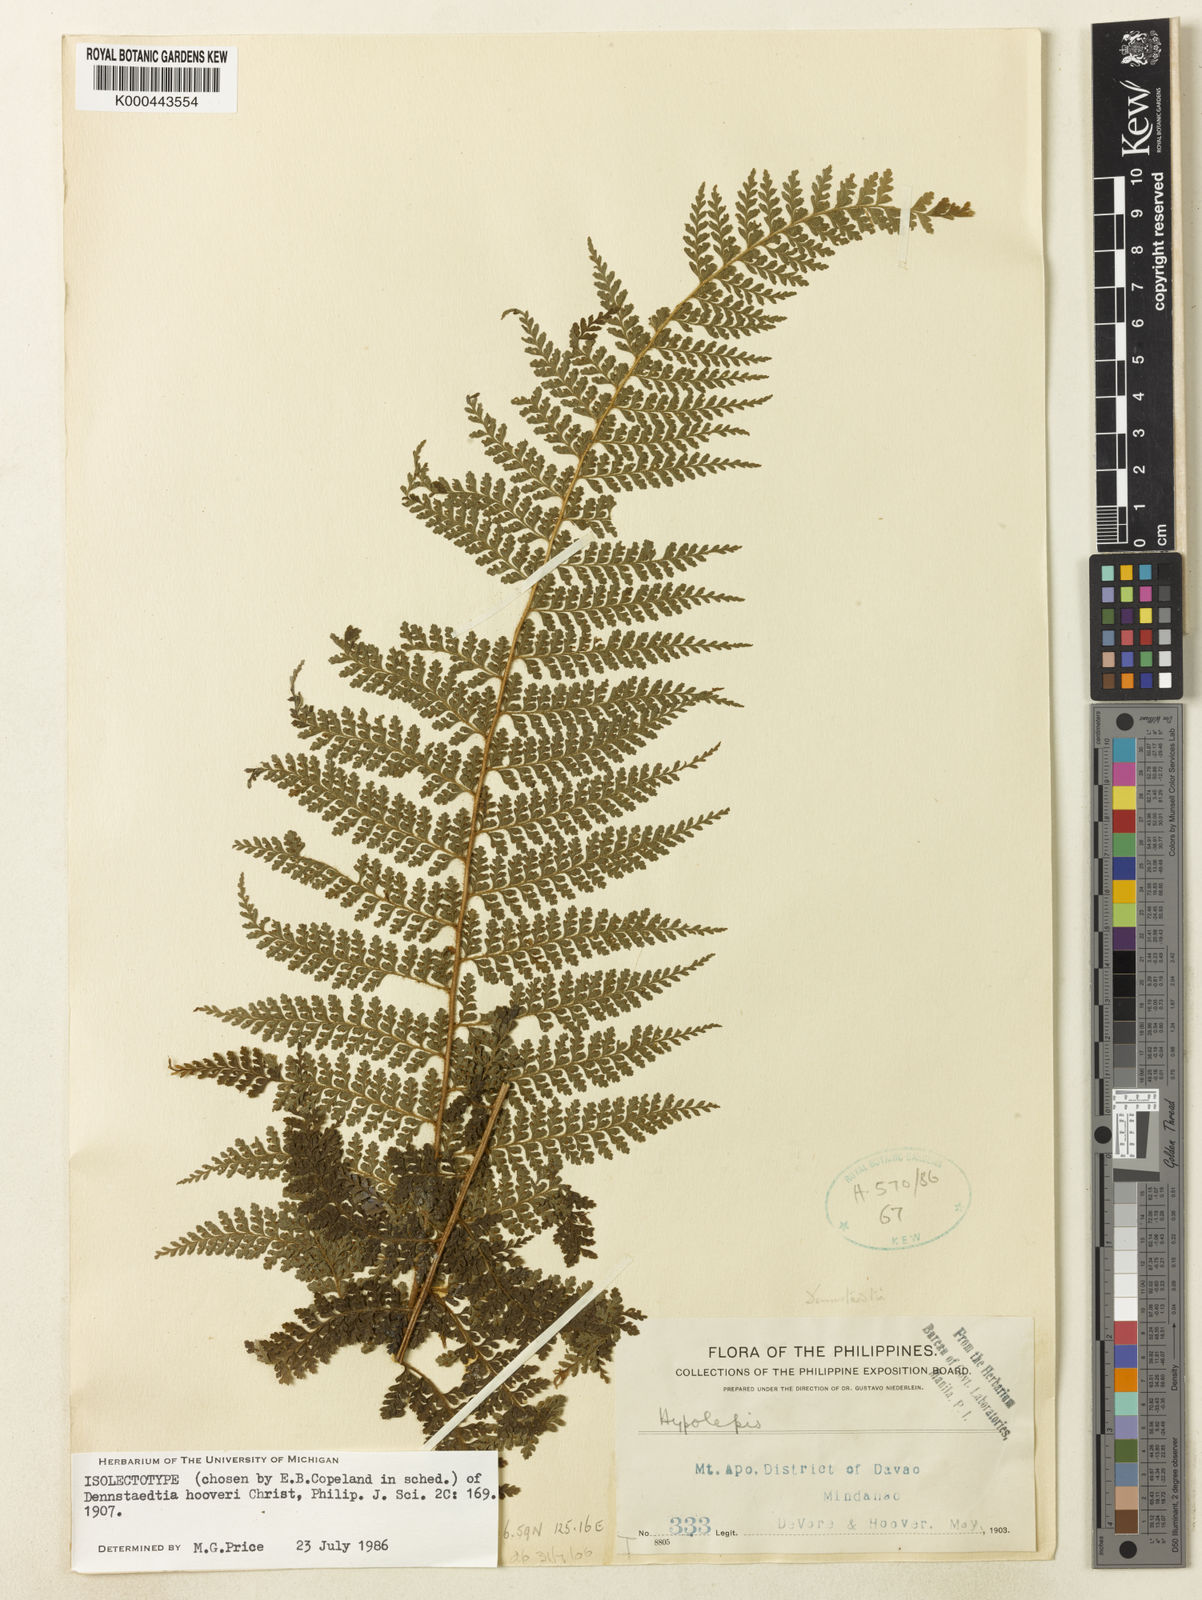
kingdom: Plantae
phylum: Tracheophyta
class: Polypodiopsida
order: Polypodiales
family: Dennstaedtiaceae
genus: Dennstaedtia
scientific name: Dennstaedtia hooveri
